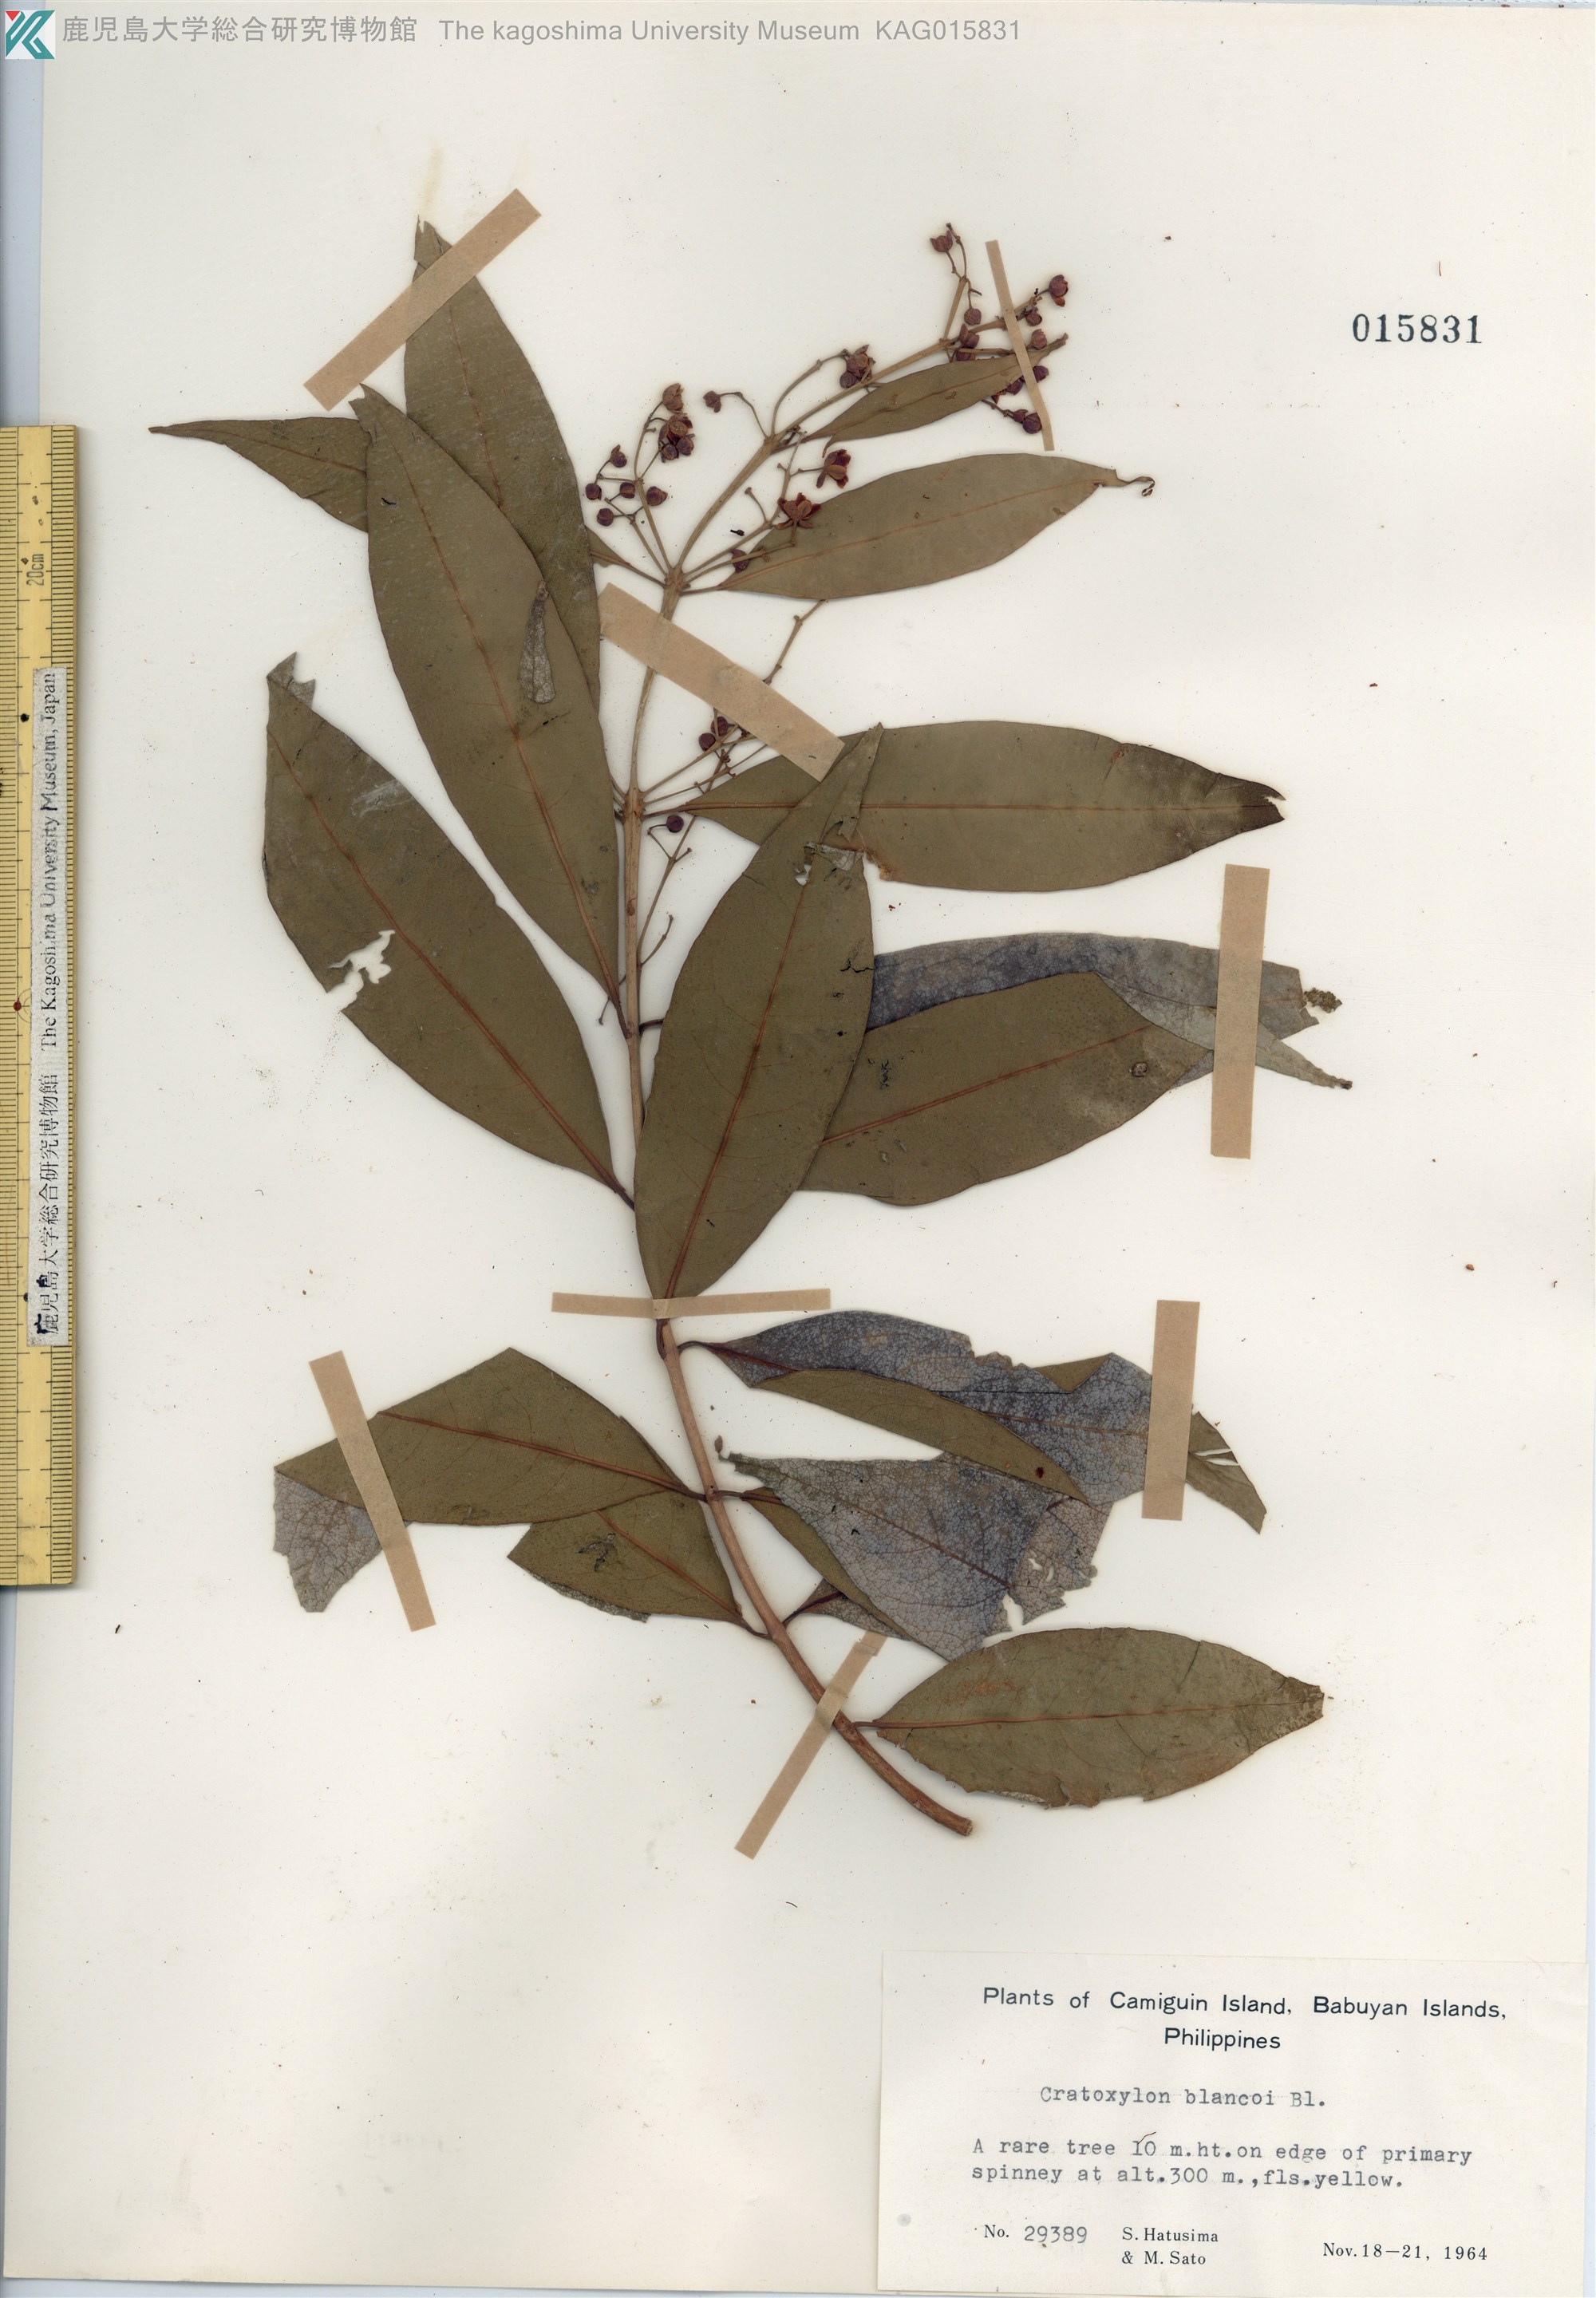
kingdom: Plantae
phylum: Tracheophyta
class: Magnoliopsida
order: Malpighiales
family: Hypericaceae
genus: Cratoxylum
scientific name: Cratoxylum sumatranum
